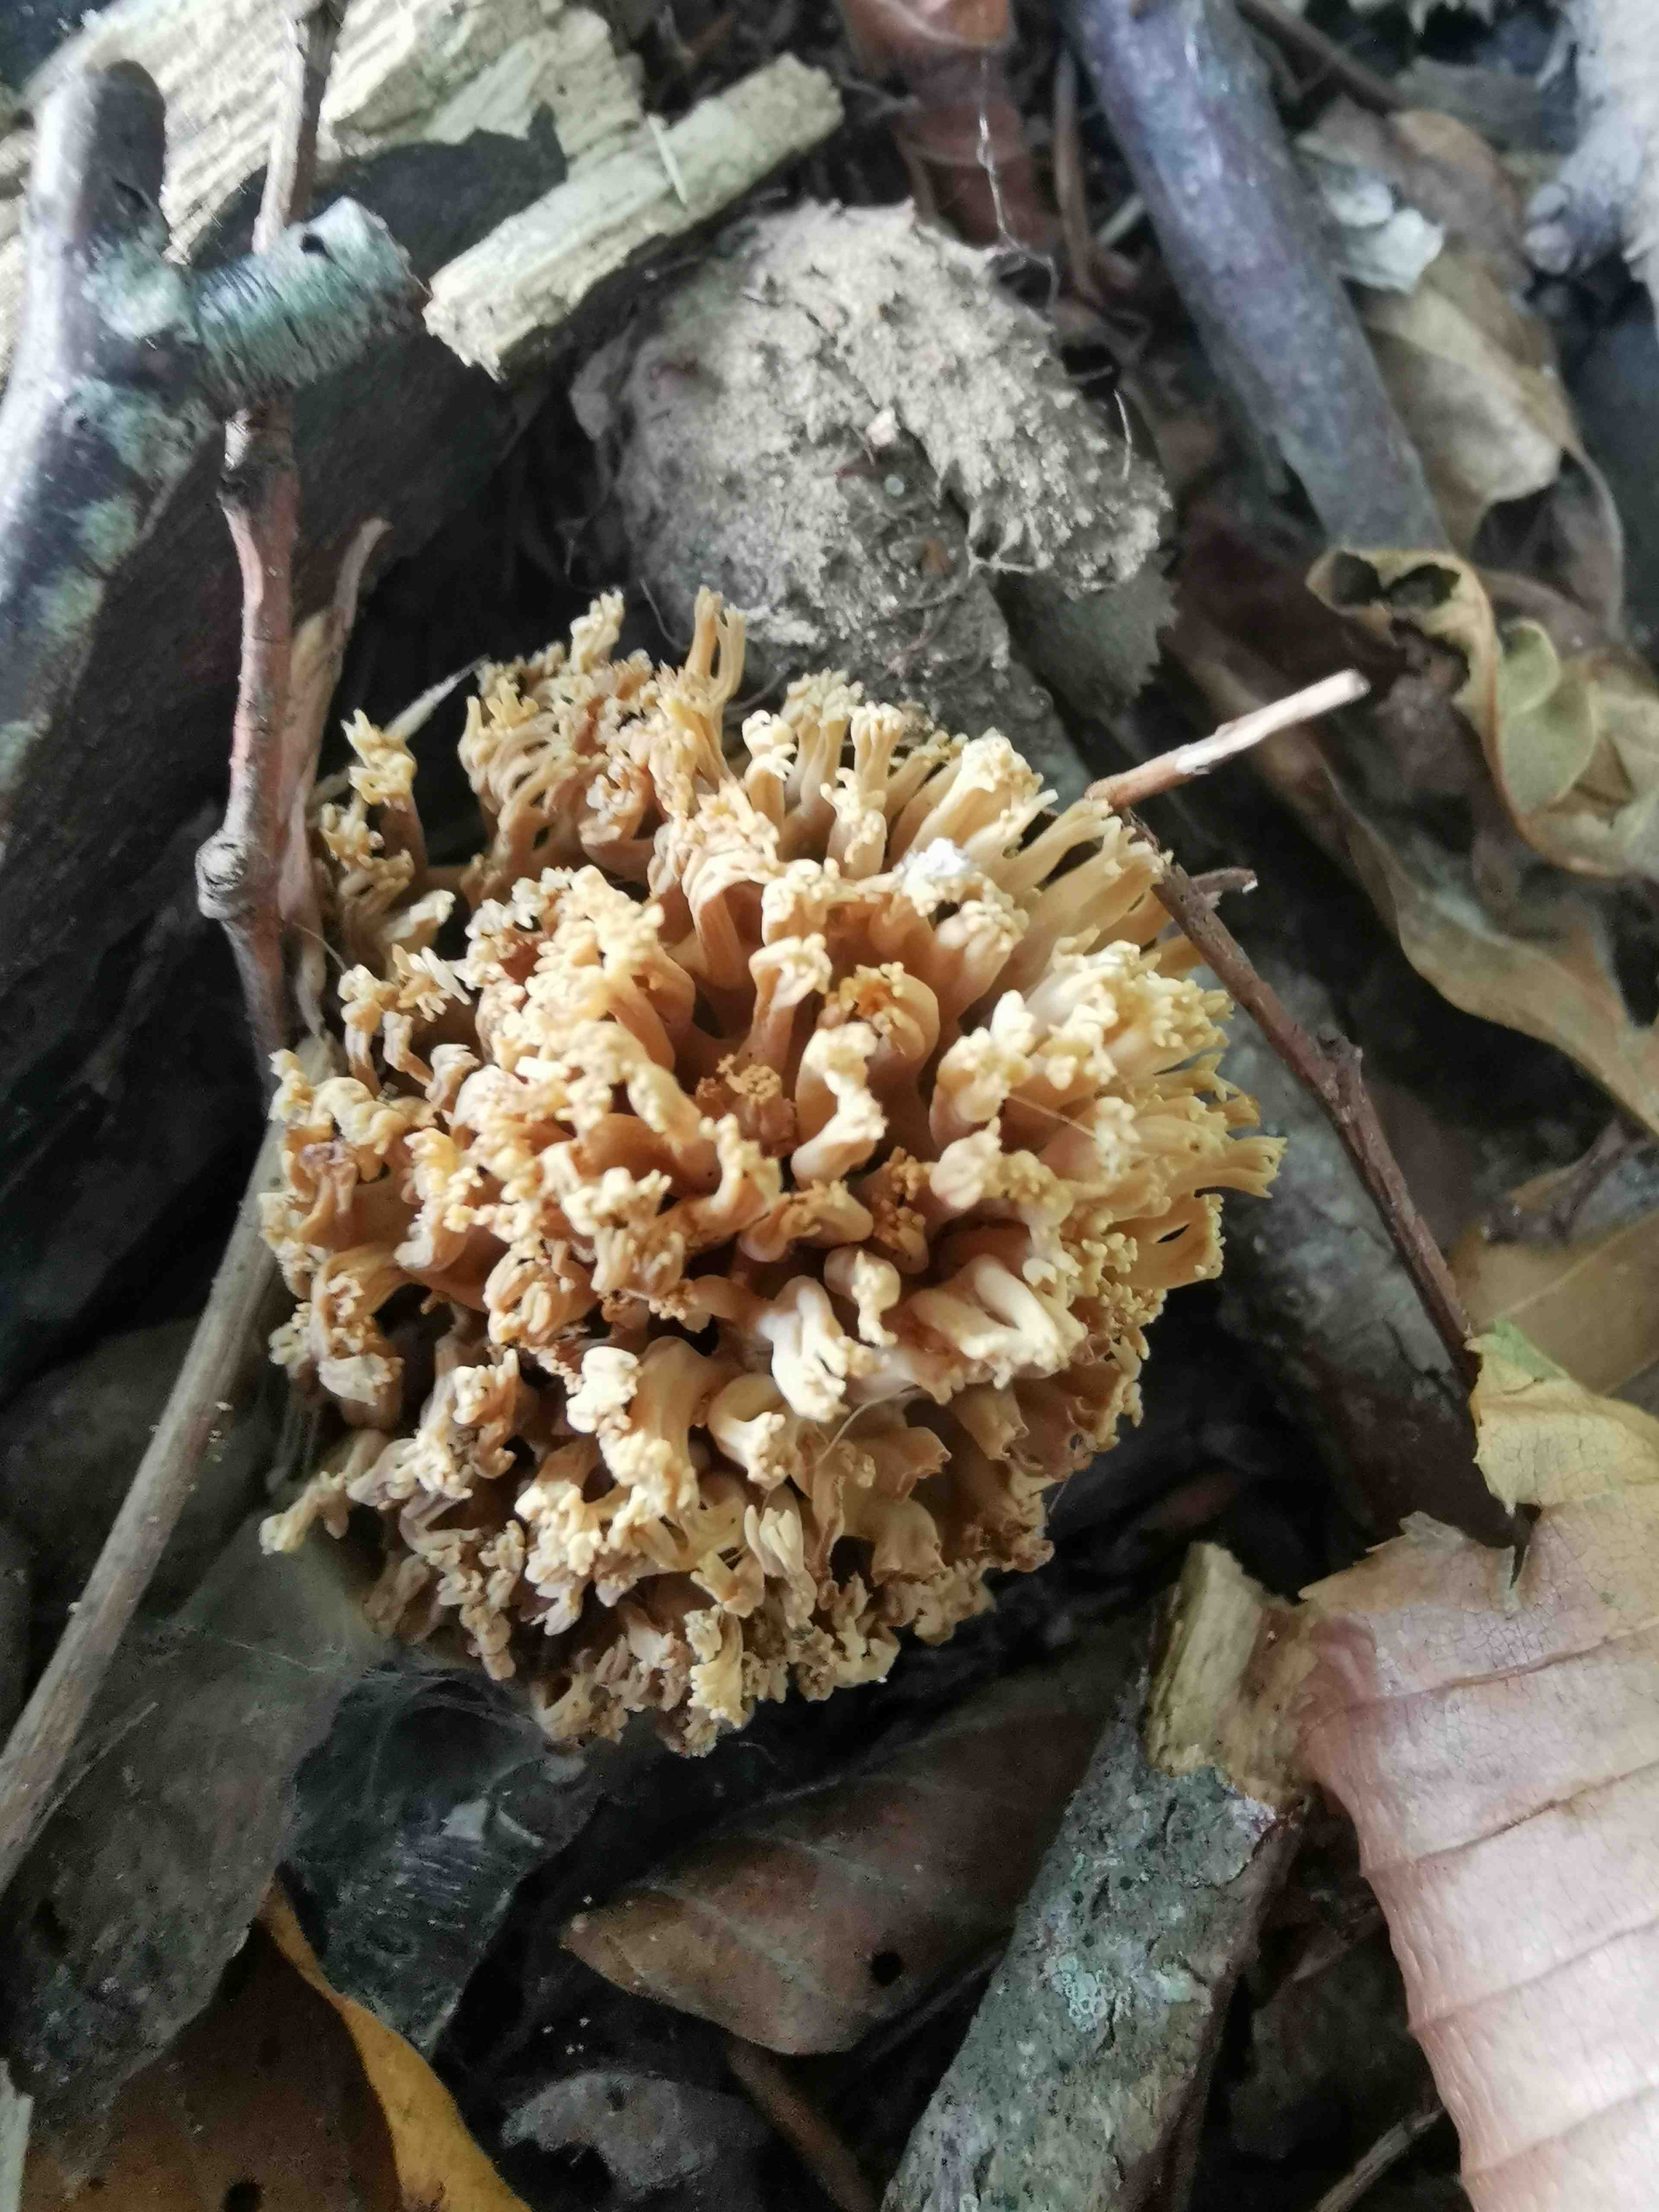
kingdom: Fungi
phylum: Basidiomycota
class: Agaricomycetes
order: Gomphales
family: Gomphaceae
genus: Ramaria
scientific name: Ramaria stricta
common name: rank koralsvamp
